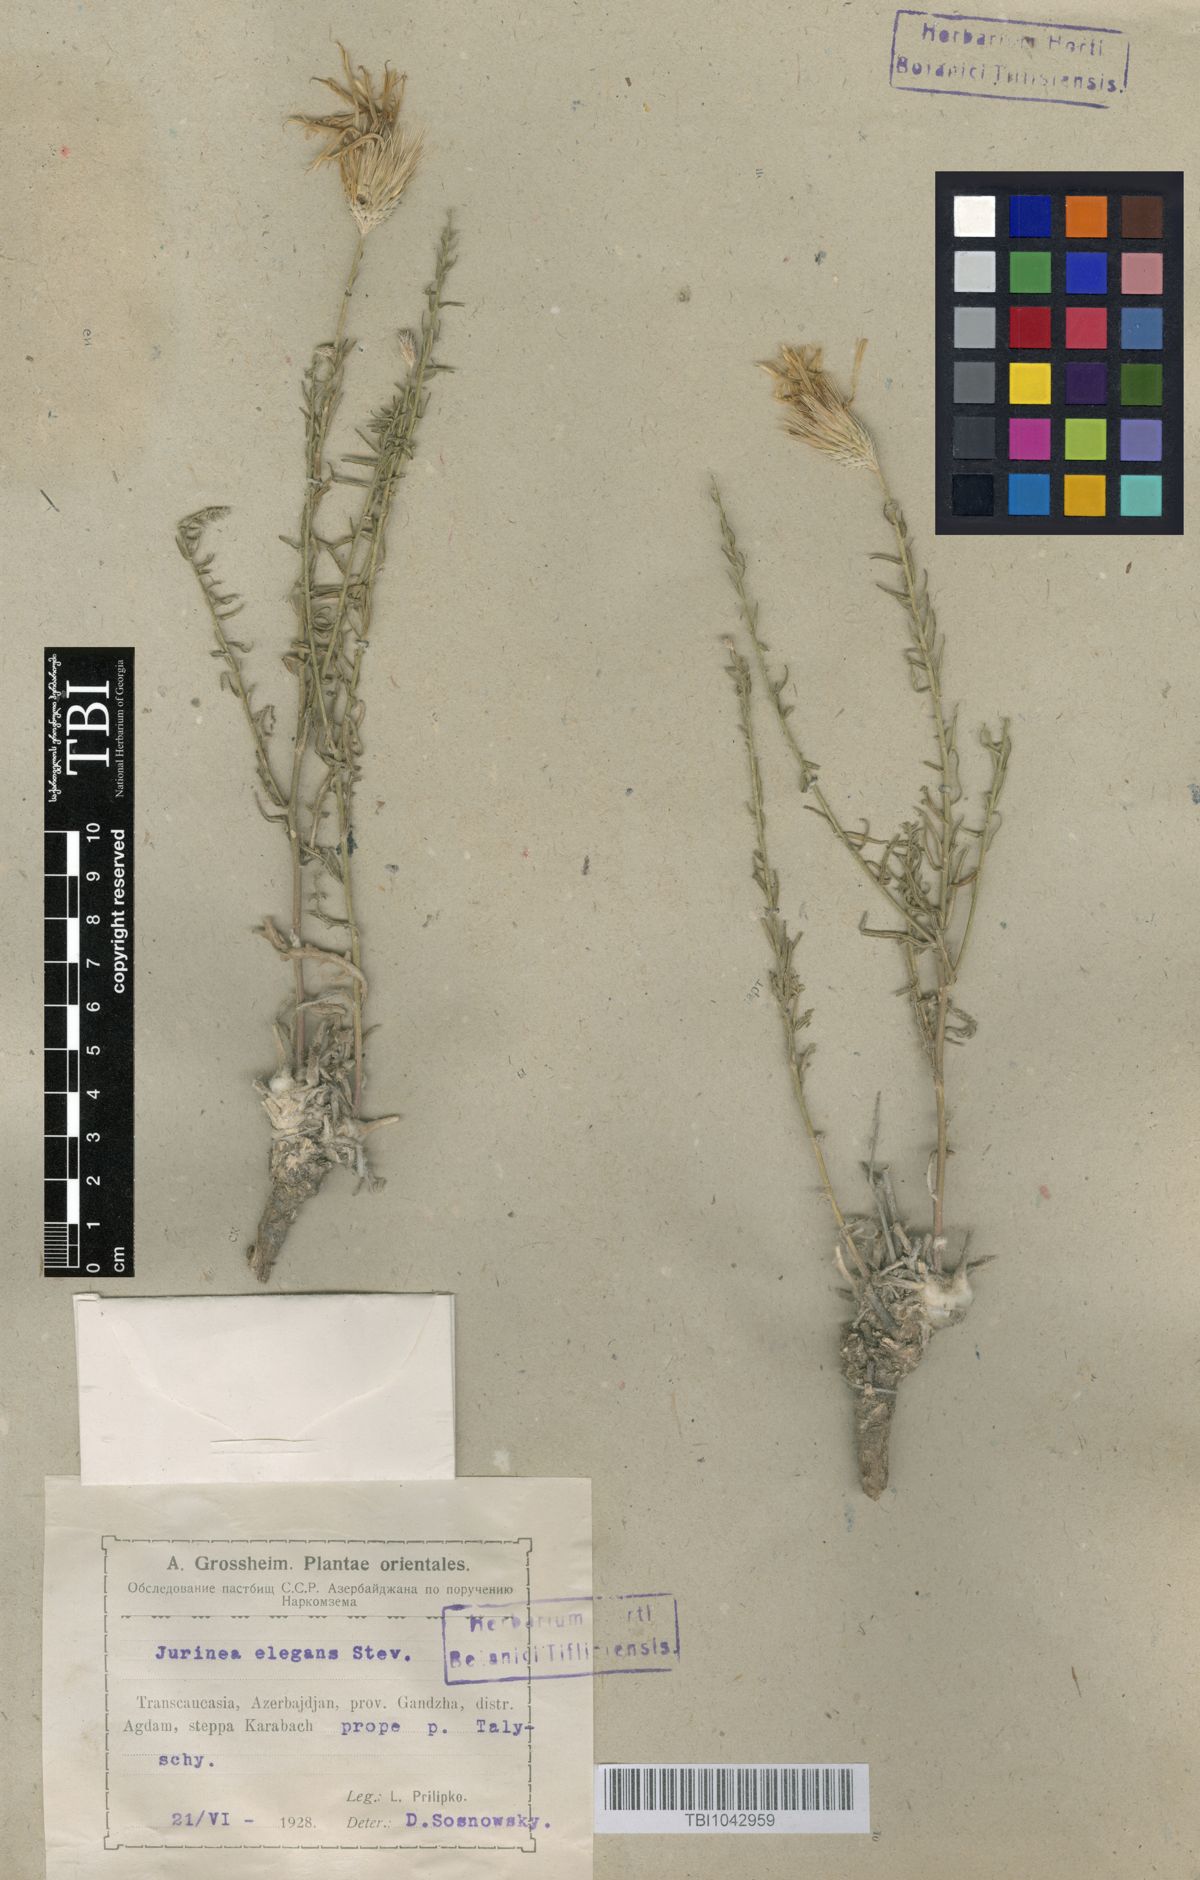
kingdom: Plantae
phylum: Tracheophyta
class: Magnoliopsida
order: Asterales
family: Asteraceae
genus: Jurinea
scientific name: Jurinea elegans
